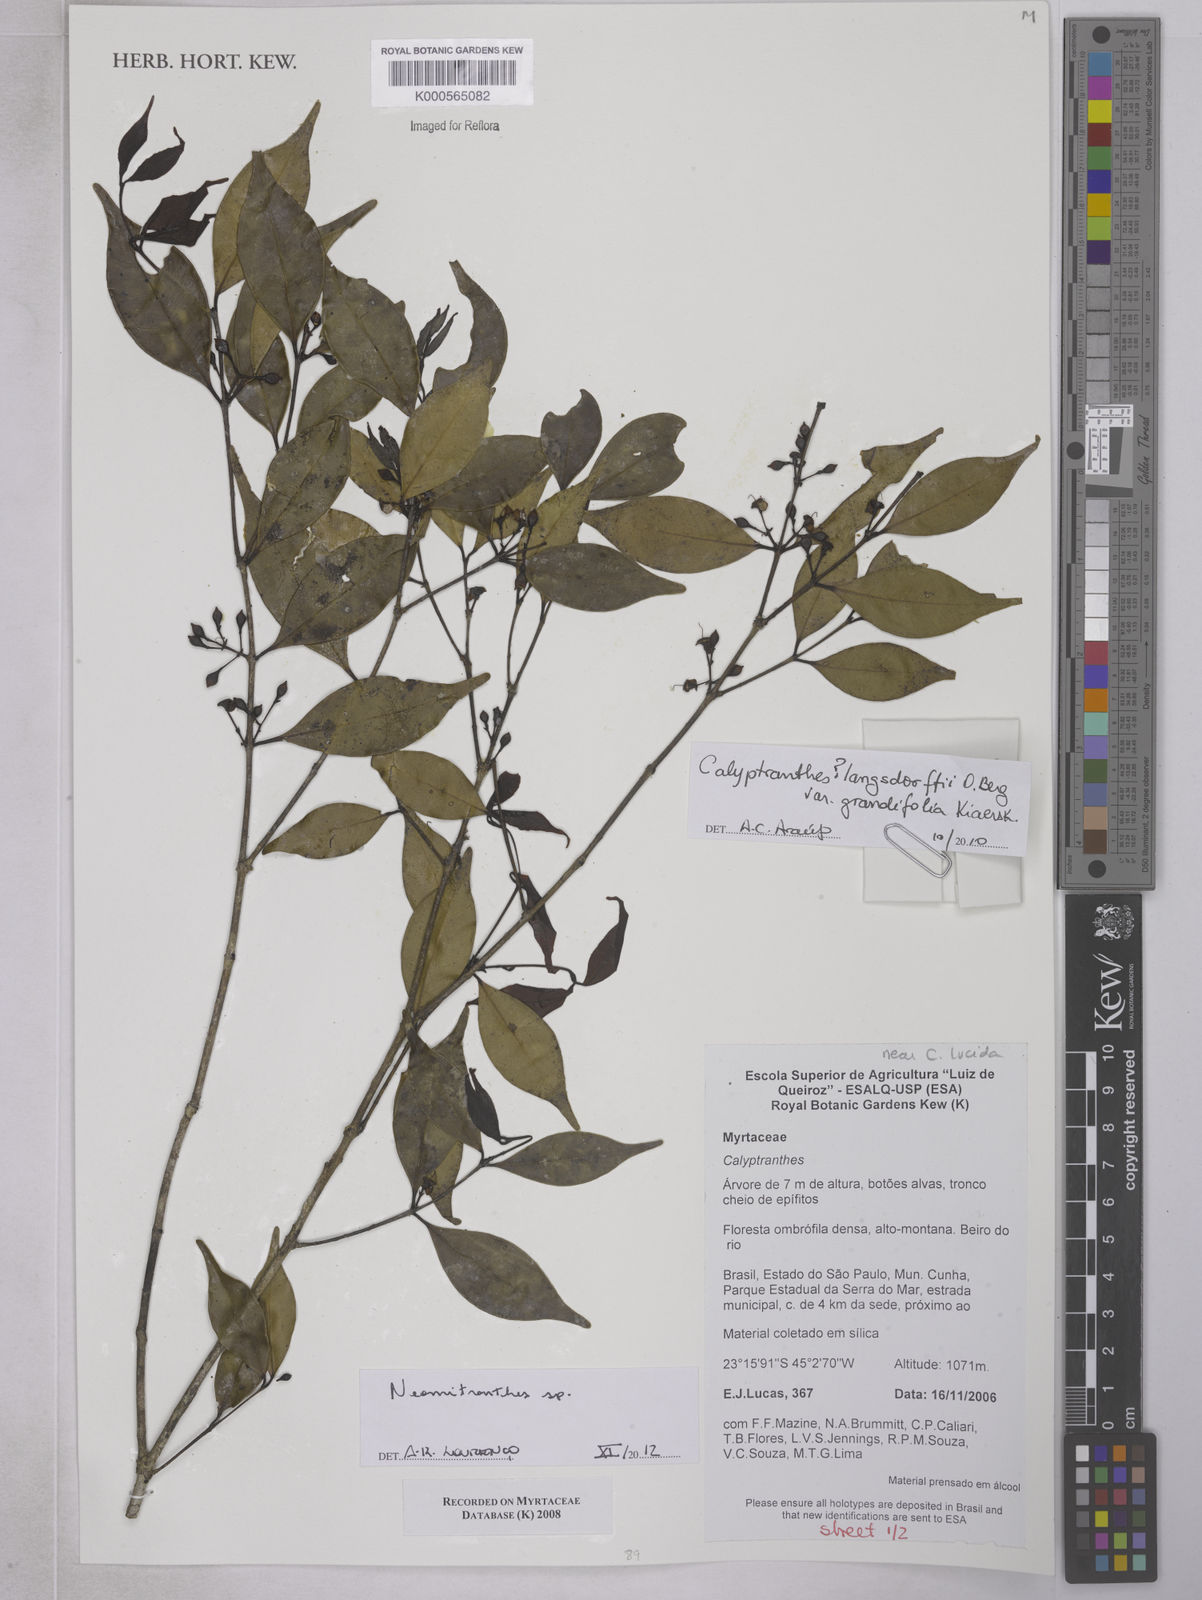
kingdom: Plantae
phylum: Tracheophyta
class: Magnoliopsida
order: Myrtales
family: Myrtaceae
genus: Neomitranthes
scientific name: Neomitranthes capivariensis
